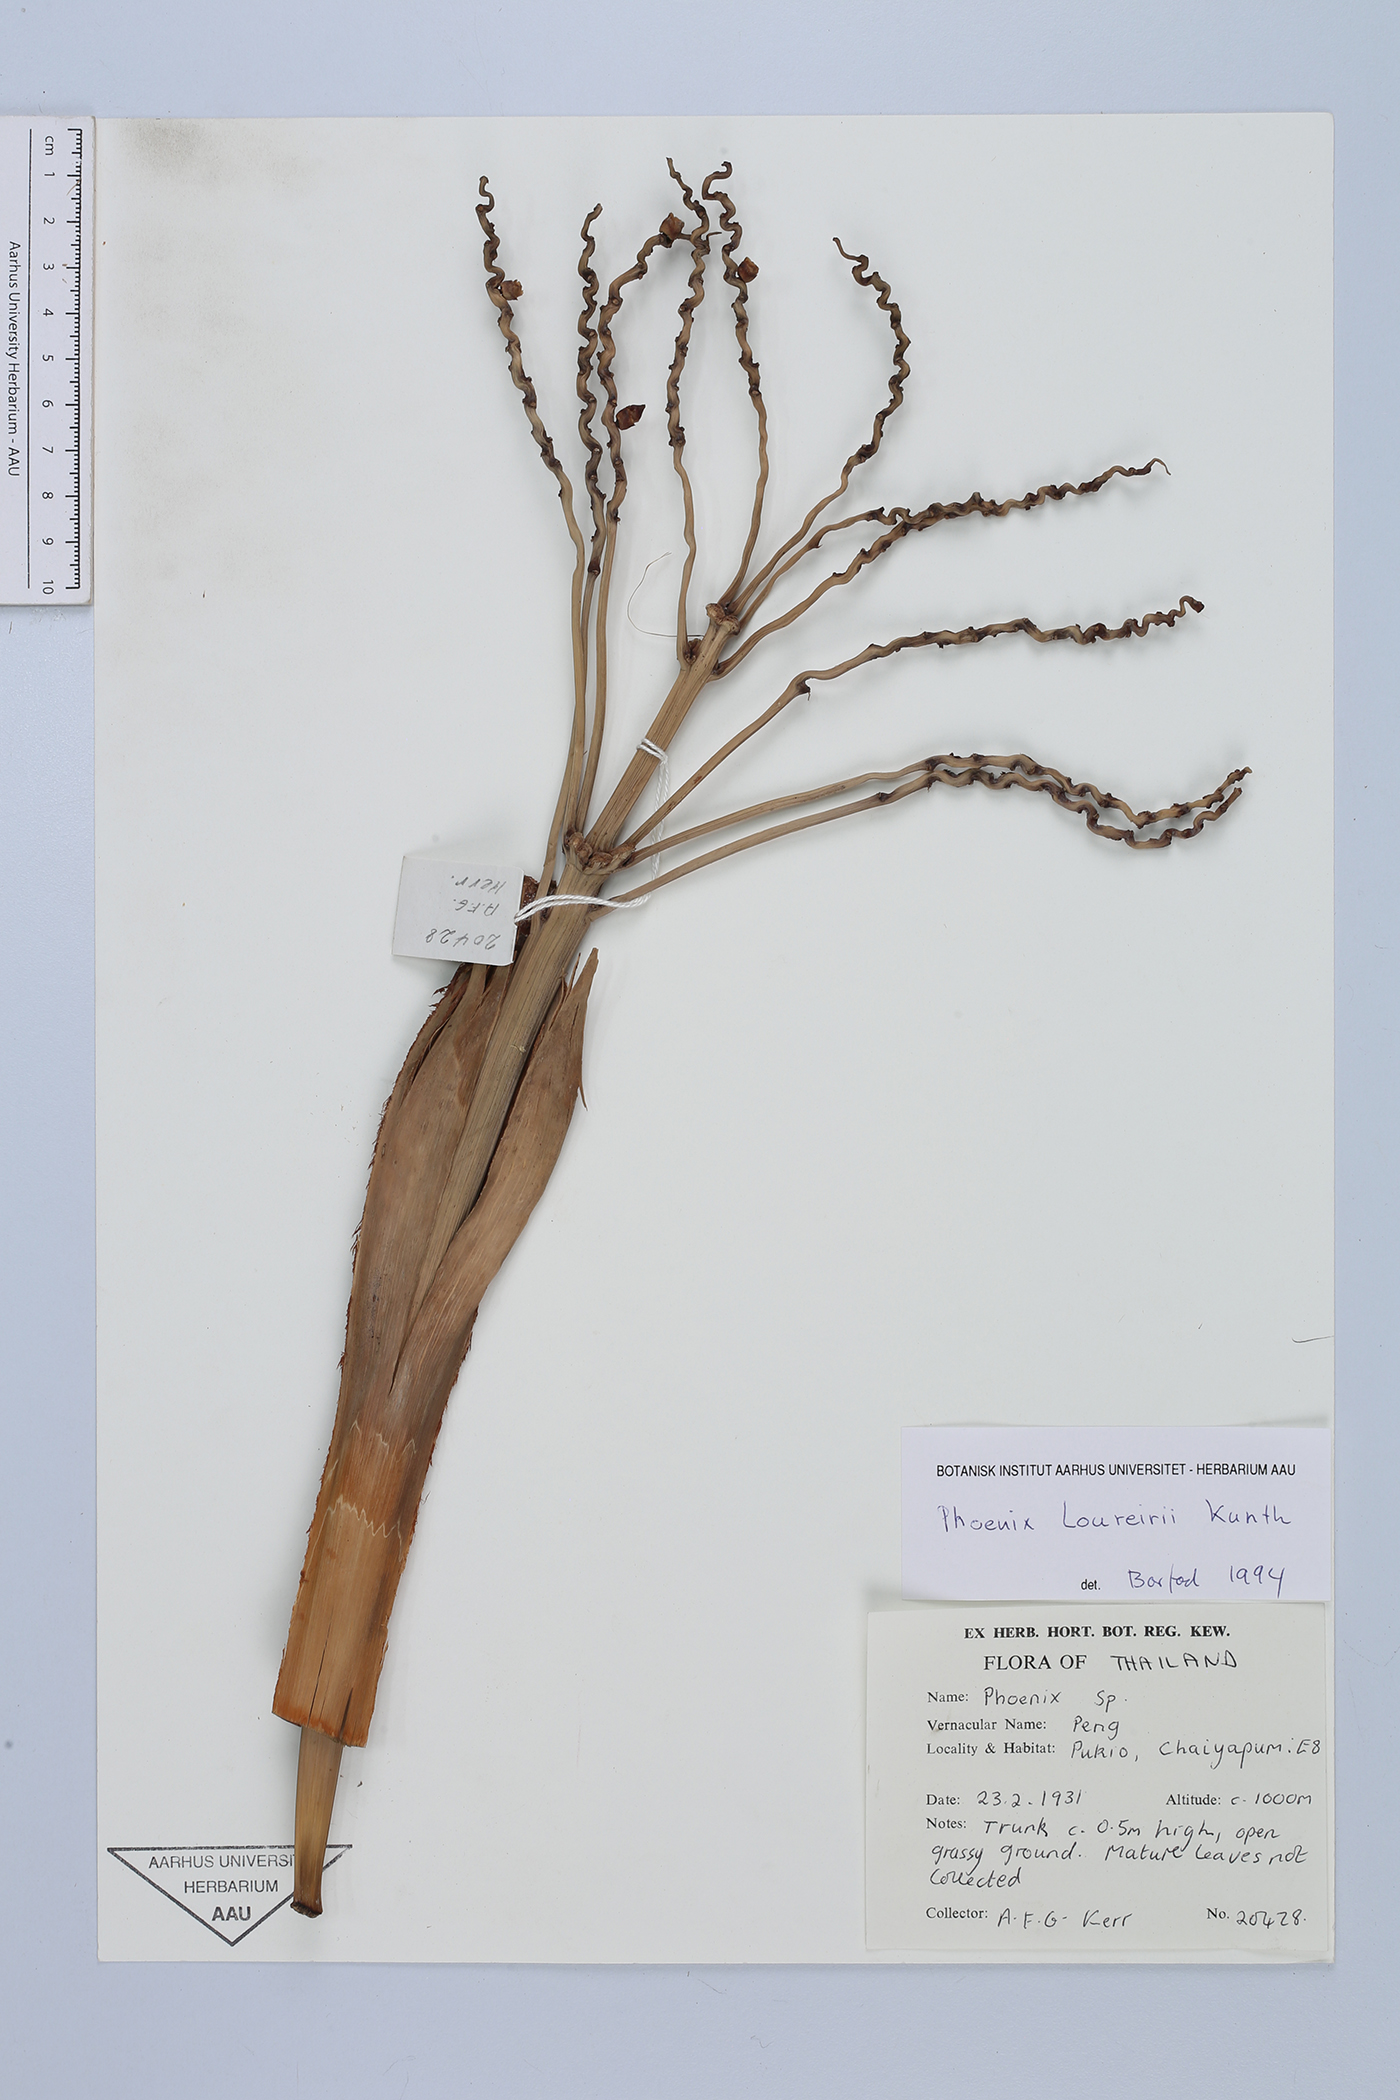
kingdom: Plantae
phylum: Tracheophyta
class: Liliopsida
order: Arecales
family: Arecaceae
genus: Phoenix
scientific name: Phoenix loureiroi
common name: Loureiro's palm
